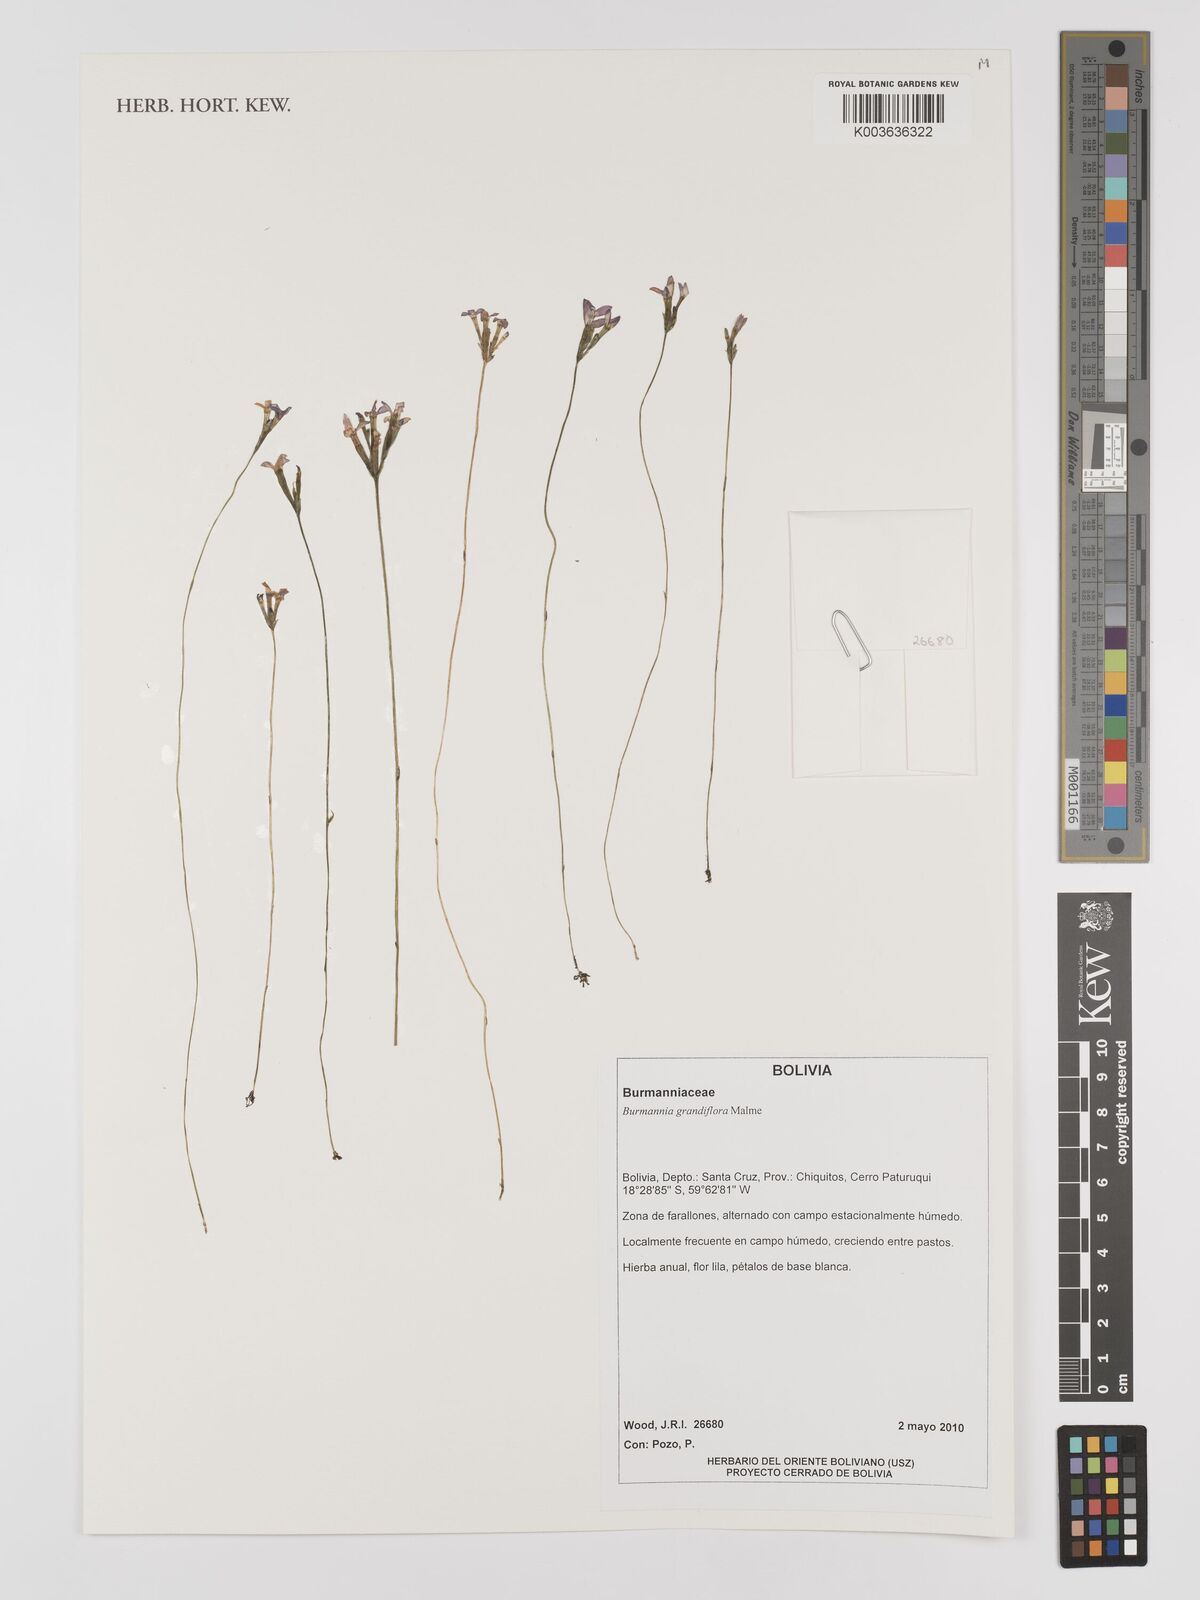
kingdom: Plantae
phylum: Tracheophyta
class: Liliopsida
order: Dioscoreales
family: Burmanniaceae
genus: Burmannia
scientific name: Burmannia grandiflora
